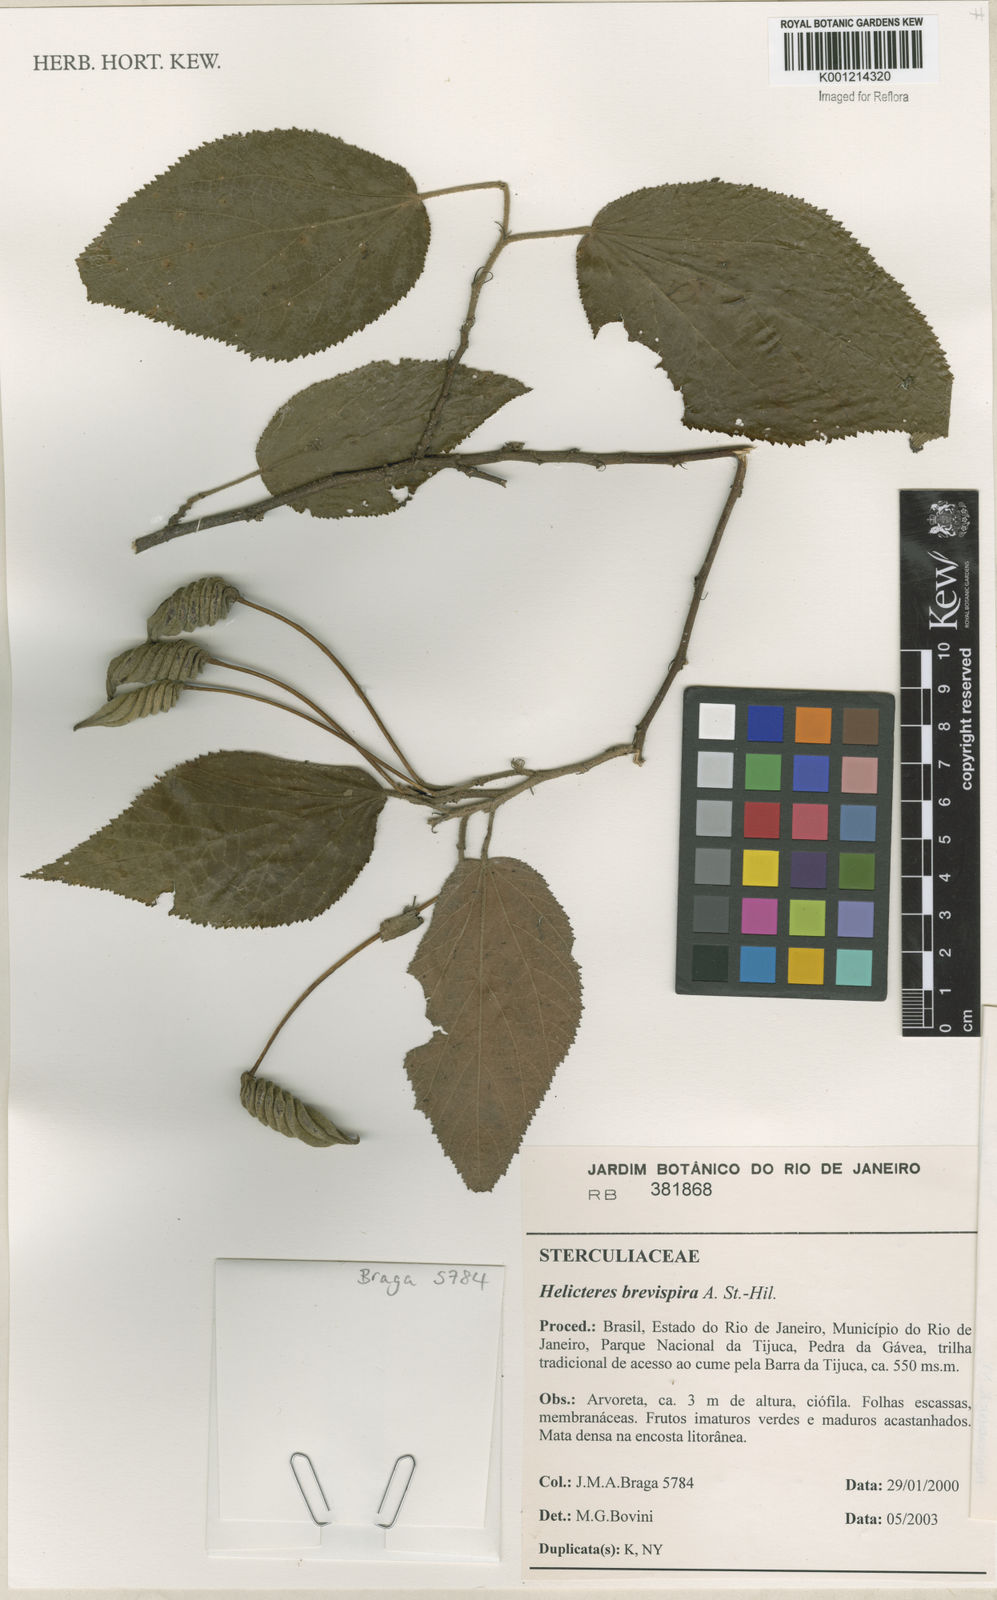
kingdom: Plantae
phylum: Tracheophyta
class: Magnoliopsida
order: Malvales
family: Malvaceae
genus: Helicteres
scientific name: Helicteres
